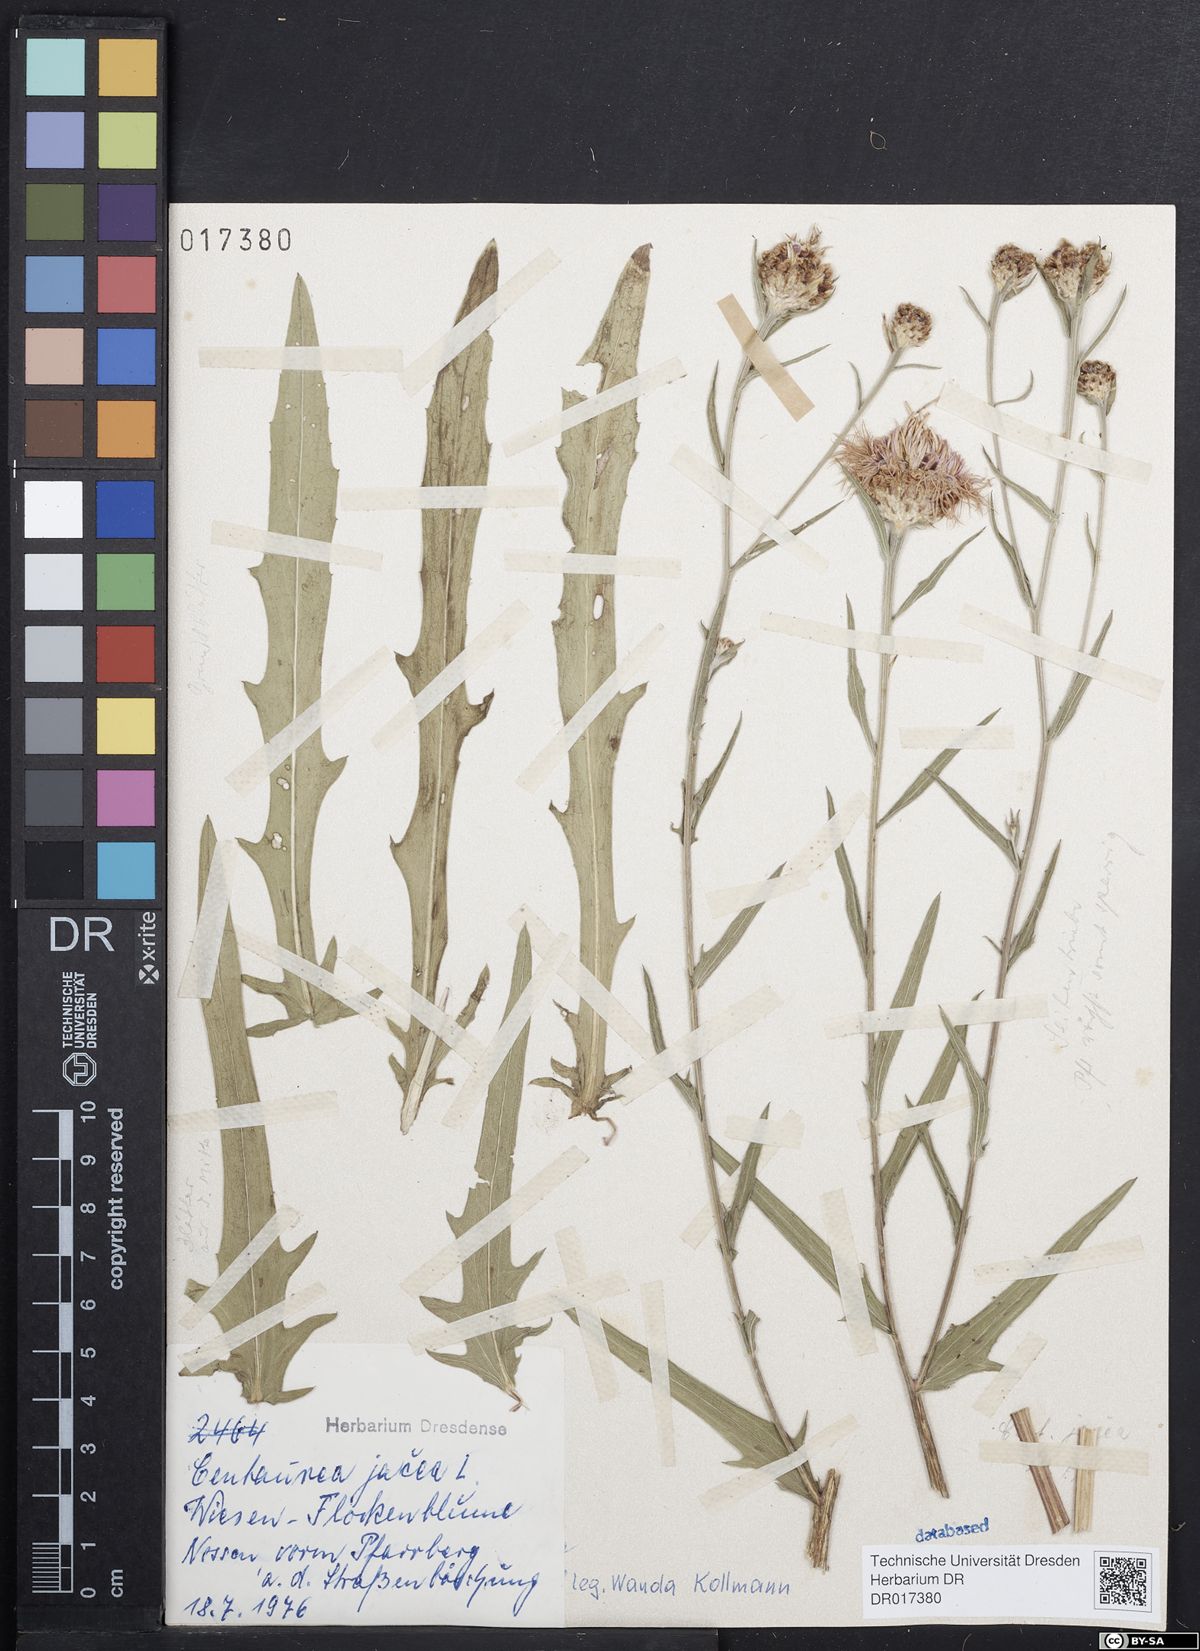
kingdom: Plantae
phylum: Tracheophyta
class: Magnoliopsida
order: Asterales
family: Asteraceae
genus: Centaurea
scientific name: Centaurea jacea
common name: Brown knapweed
